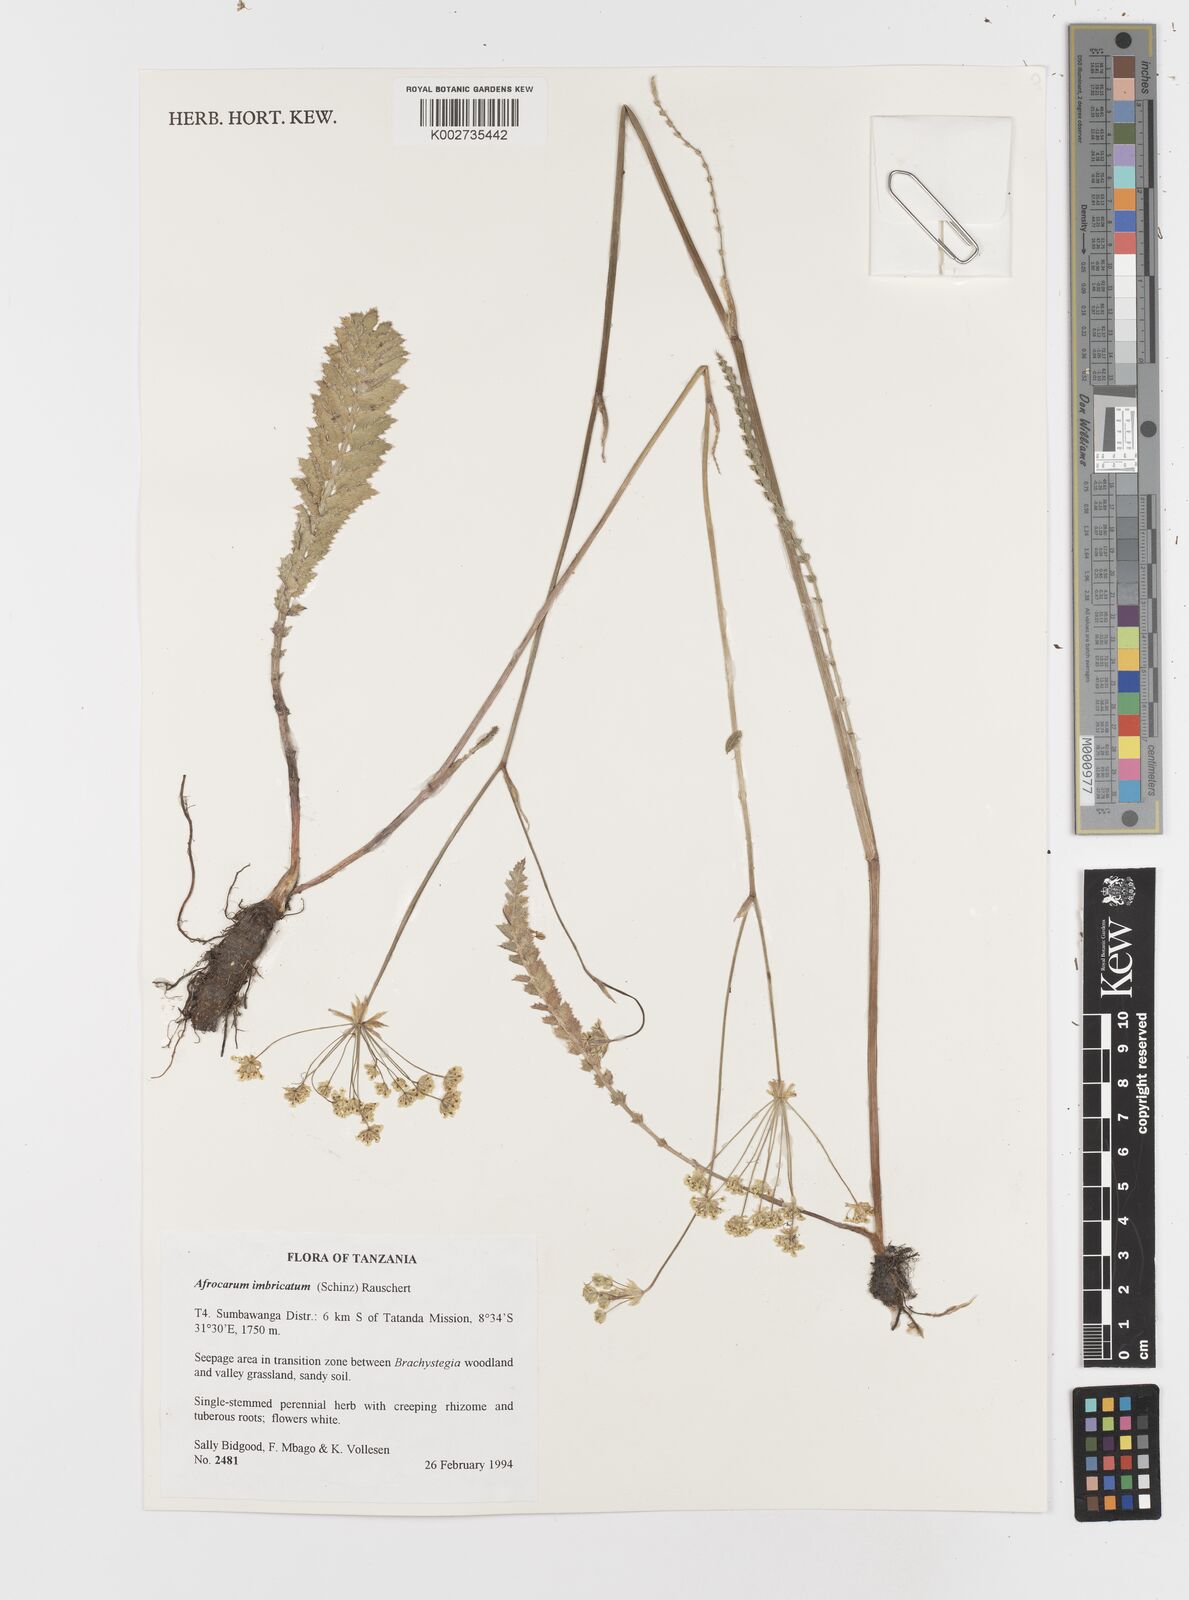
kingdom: Plantae
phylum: Tracheophyta
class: Magnoliopsida
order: Apiales
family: Apiaceae
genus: Berula
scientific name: Berula imbricata
